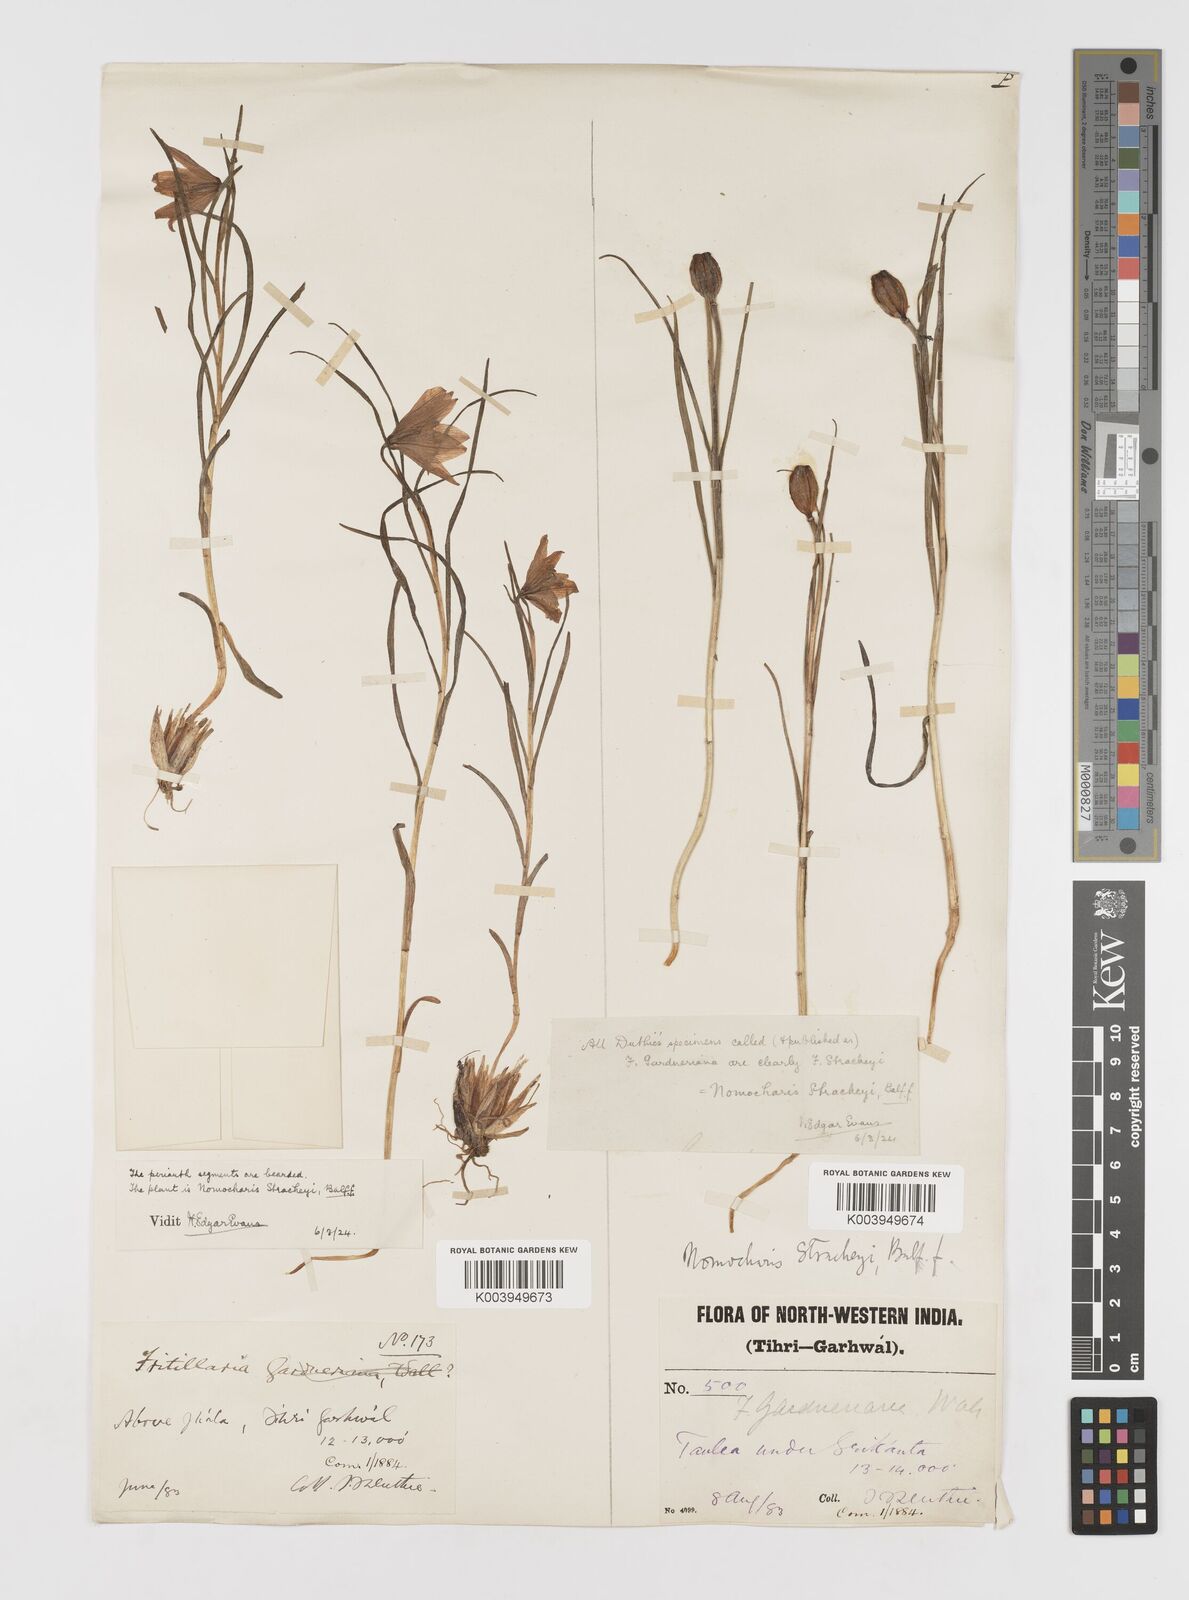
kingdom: Plantae
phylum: Tracheophyta
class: Liliopsida
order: Liliales
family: Liliaceae
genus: Lilium
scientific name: Lilium nanum
